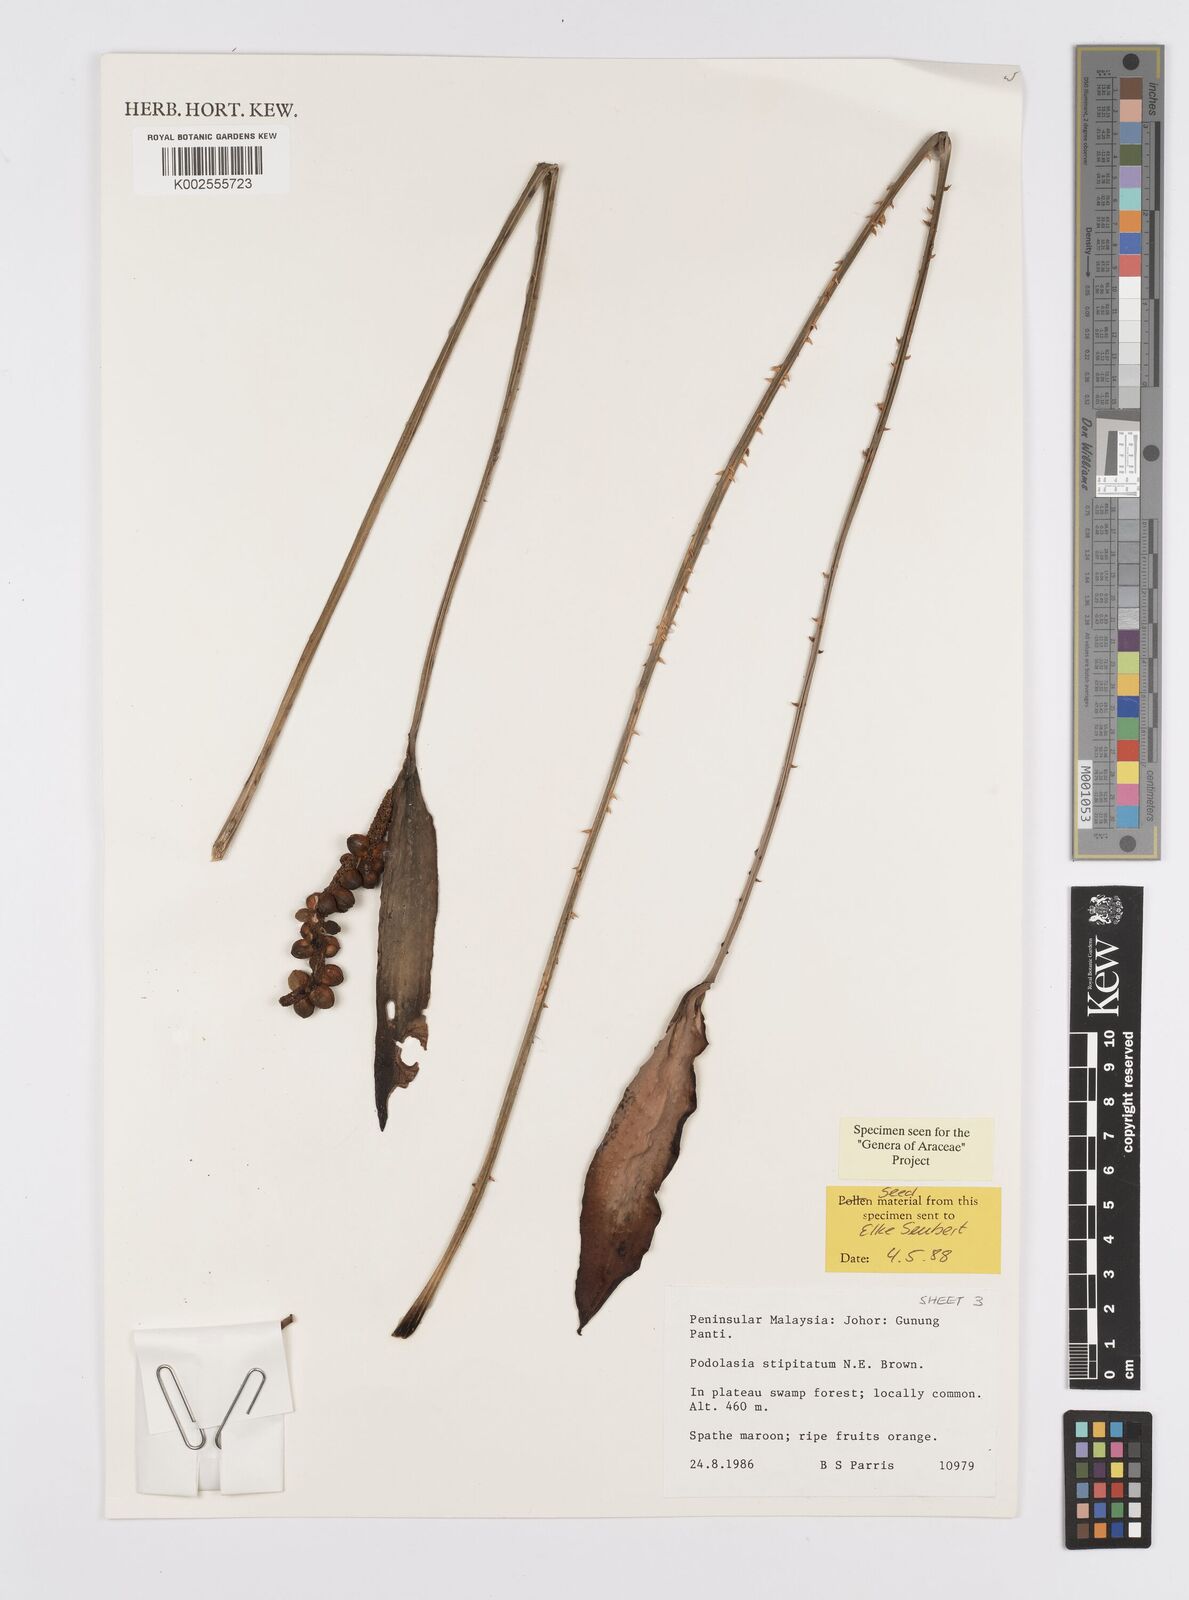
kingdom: Plantae
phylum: Tracheophyta
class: Liliopsida
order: Alismatales
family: Araceae
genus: Podolasia
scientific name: Podolasia stipitata
